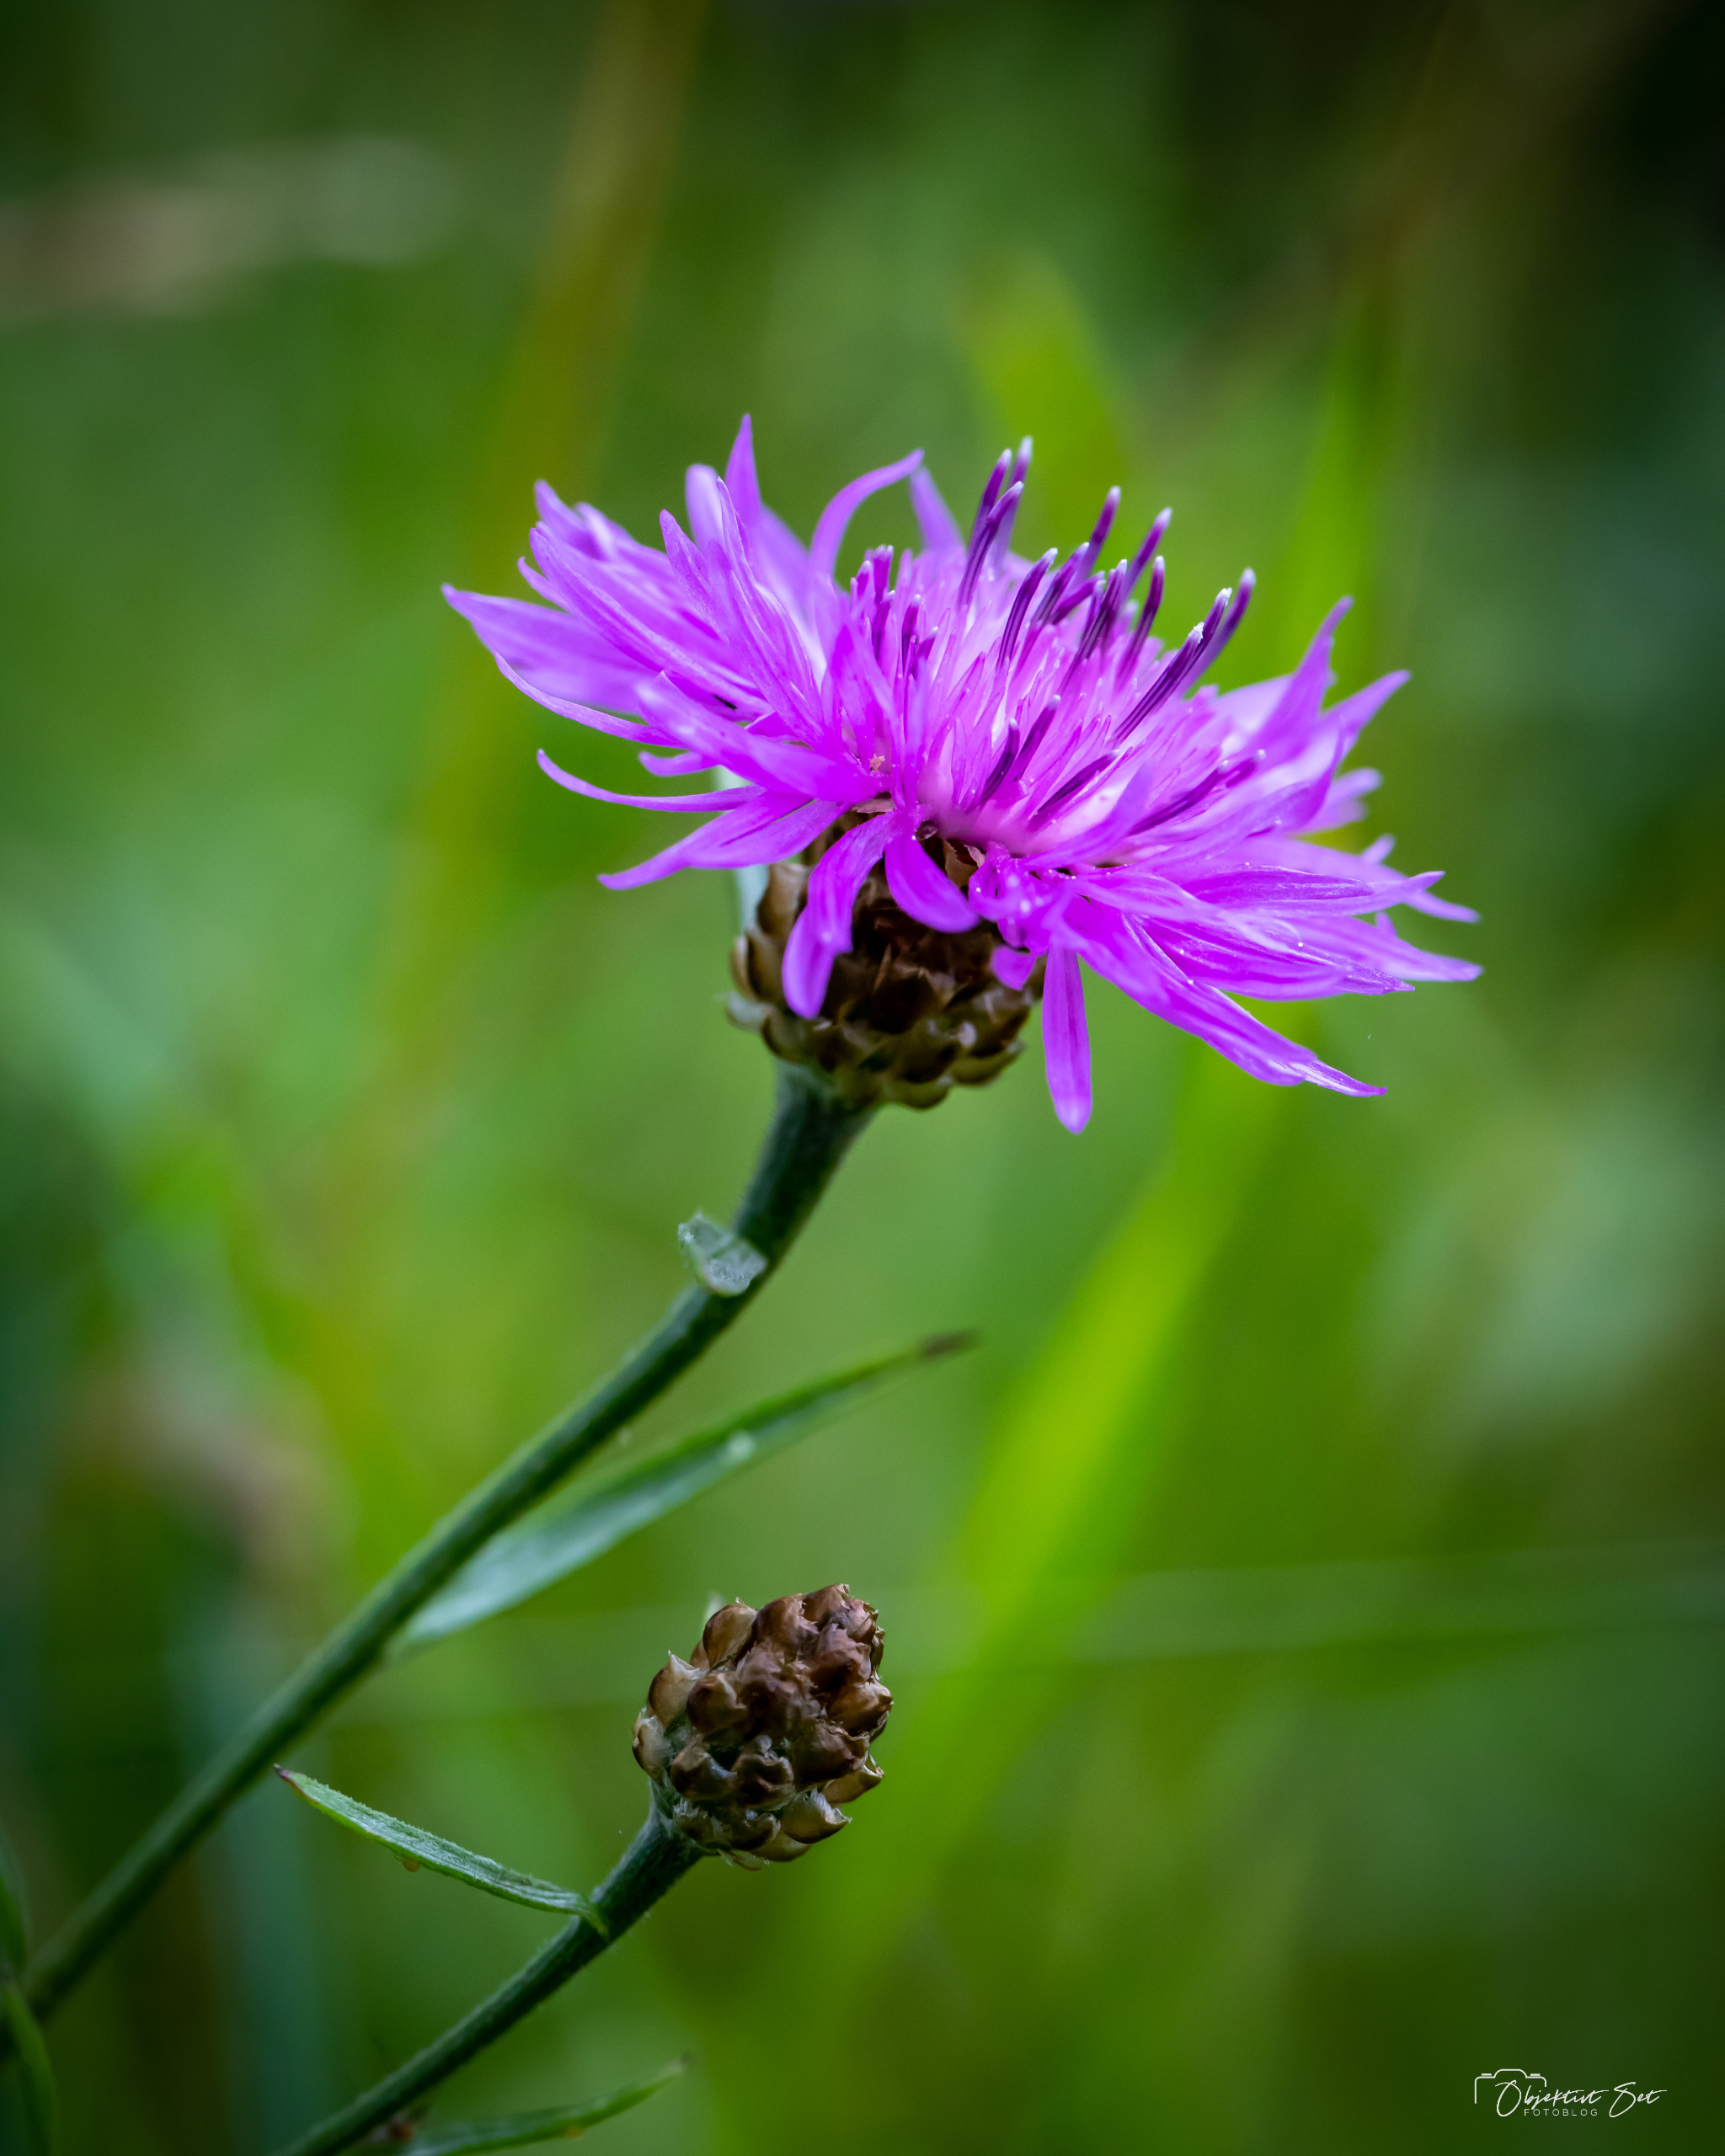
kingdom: Plantae
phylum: Tracheophyta
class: Magnoliopsida
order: Asterales
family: Asteraceae
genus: Centaurea
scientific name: Centaurea jacea
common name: Almindelig knopurt
